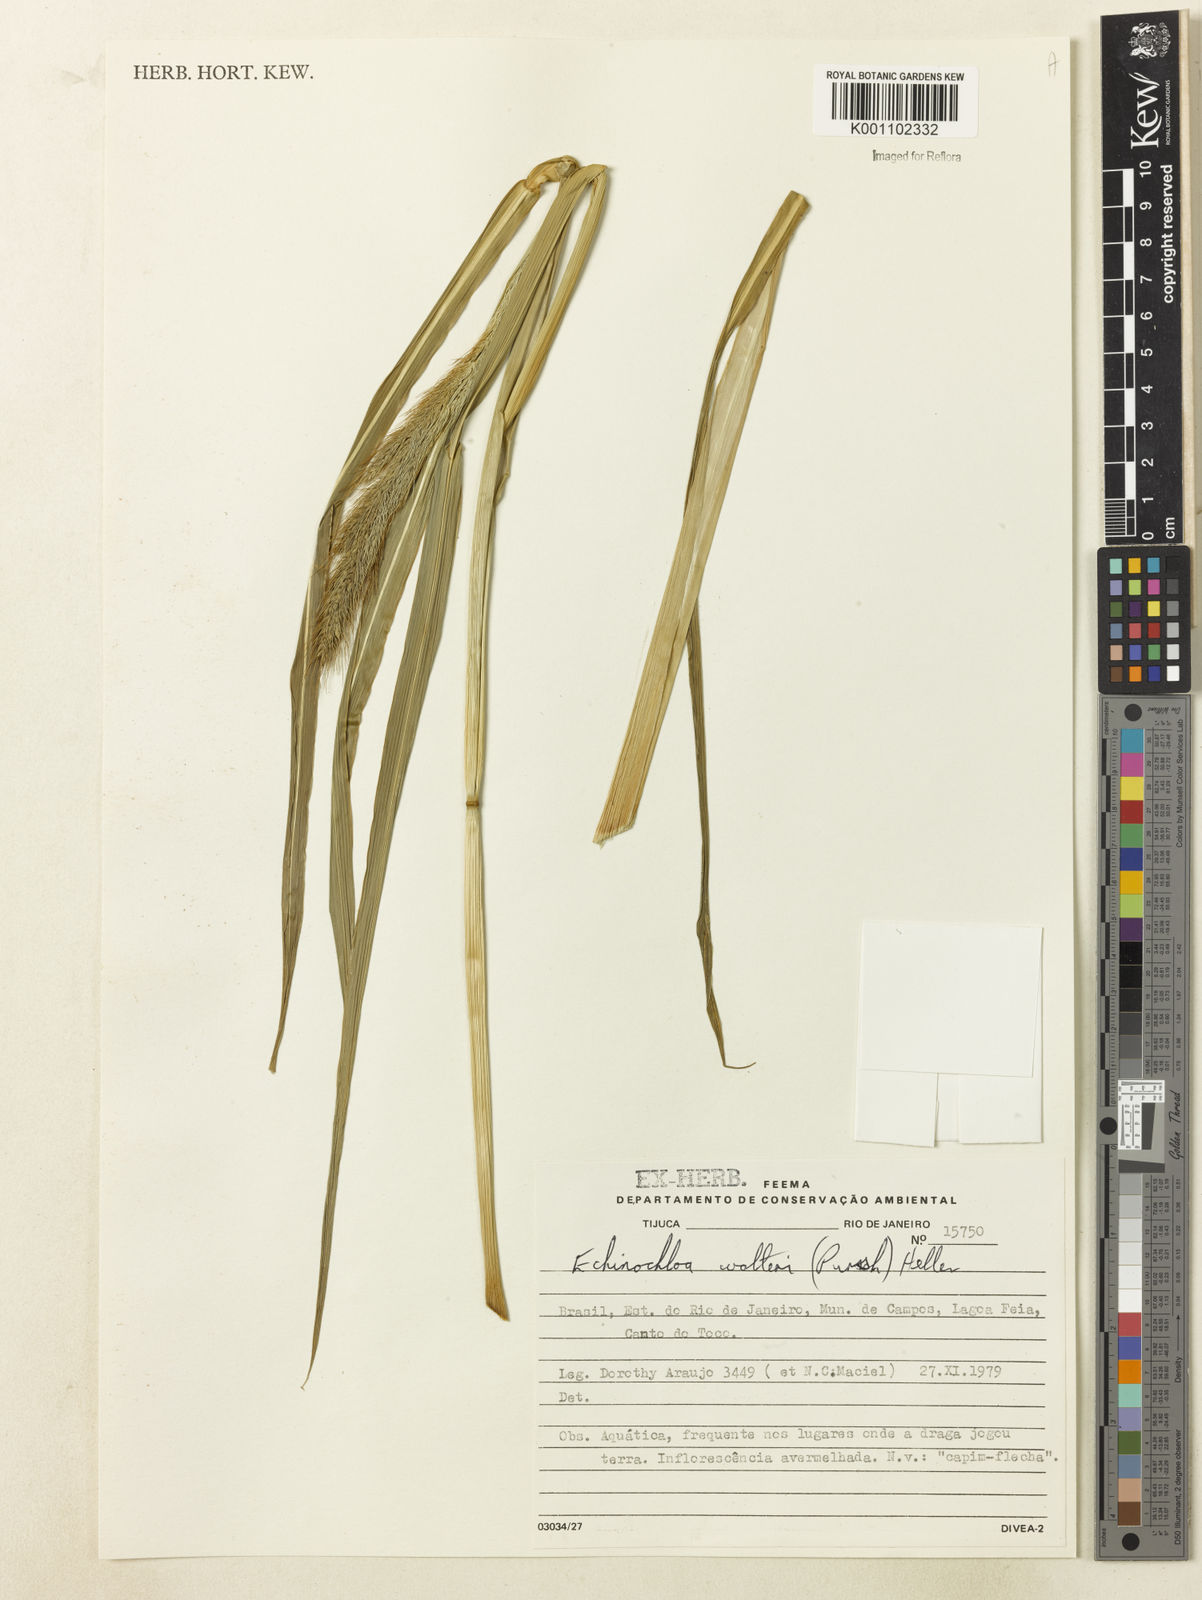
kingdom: Plantae
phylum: Tracheophyta
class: Liliopsida
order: Poales
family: Poaceae
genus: Echinochloa
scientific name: Echinochloa walteri
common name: Coast barnyard grass
